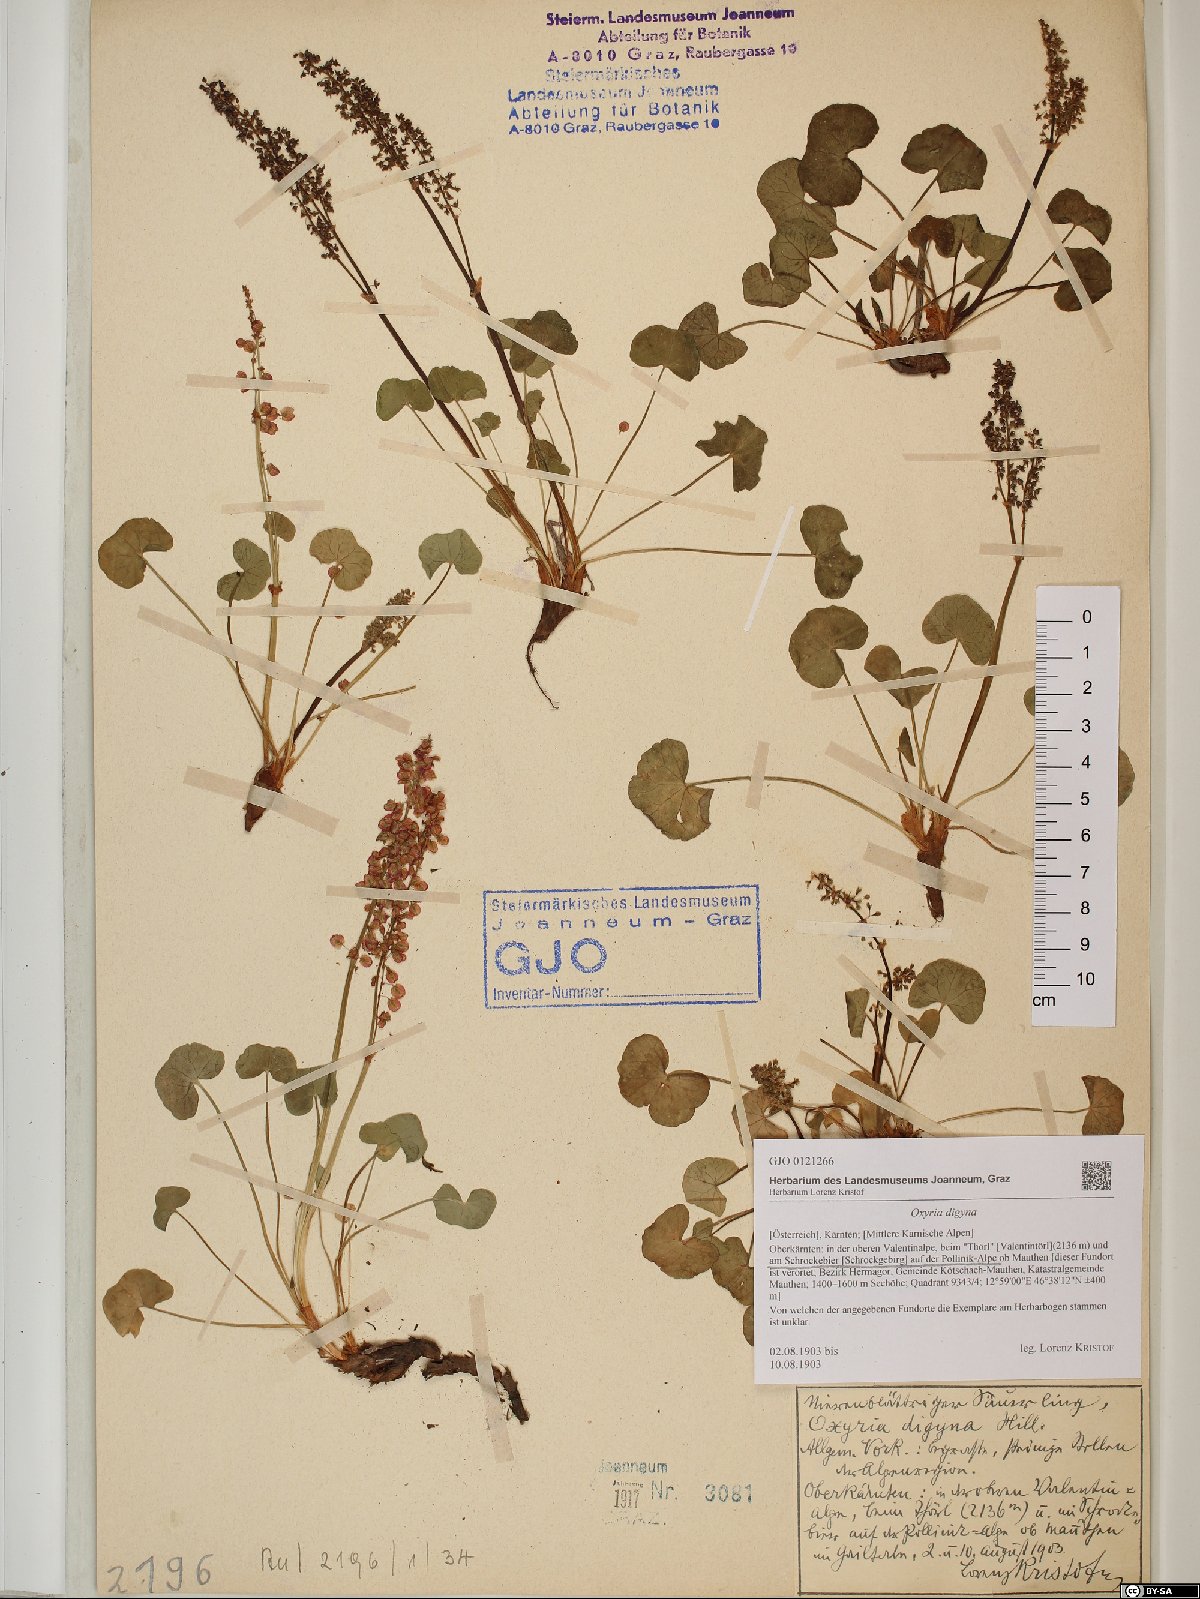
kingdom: Plantae
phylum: Tracheophyta
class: Magnoliopsida
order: Caryophyllales
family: Polygonaceae
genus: Oxyria
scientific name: Oxyria digyna
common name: Alpine mountain-sorrel
